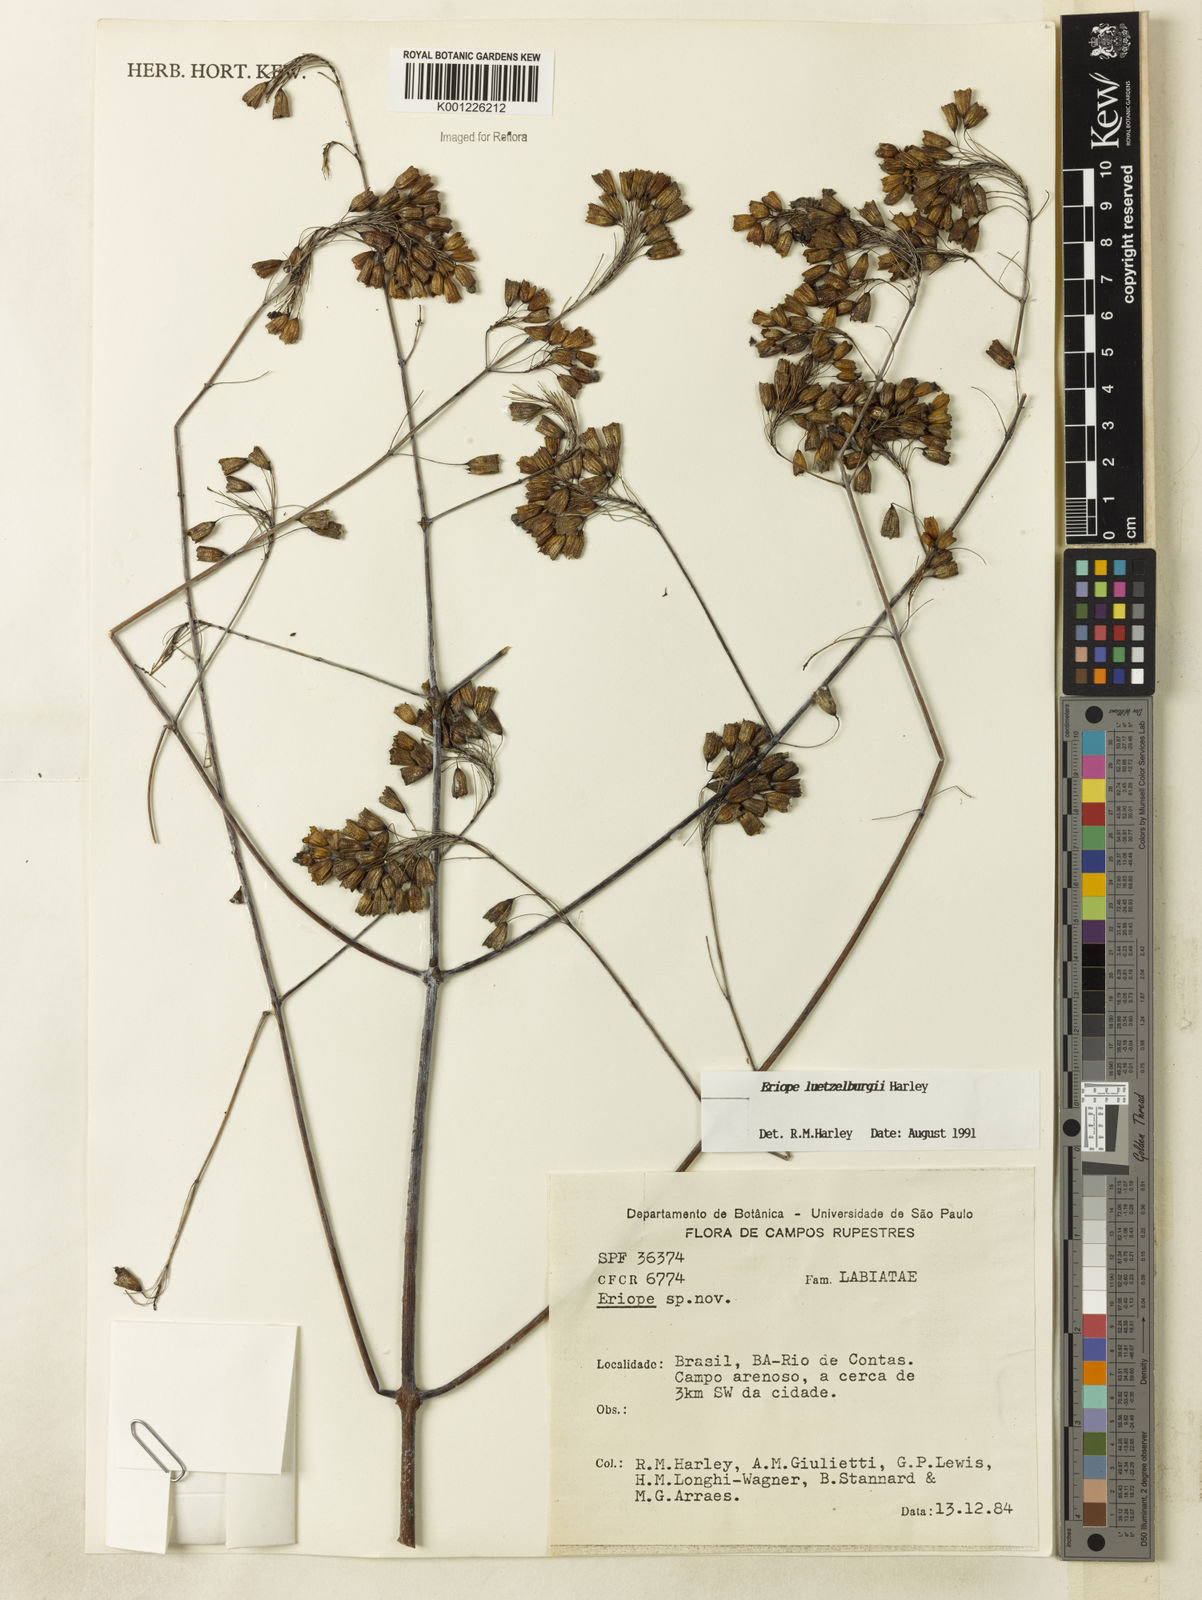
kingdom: Plantae
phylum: Tracheophyta
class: Magnoliopsida
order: Lamiales
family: Lamiaceae
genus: Eriope
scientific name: Eriope luetzelburgii
